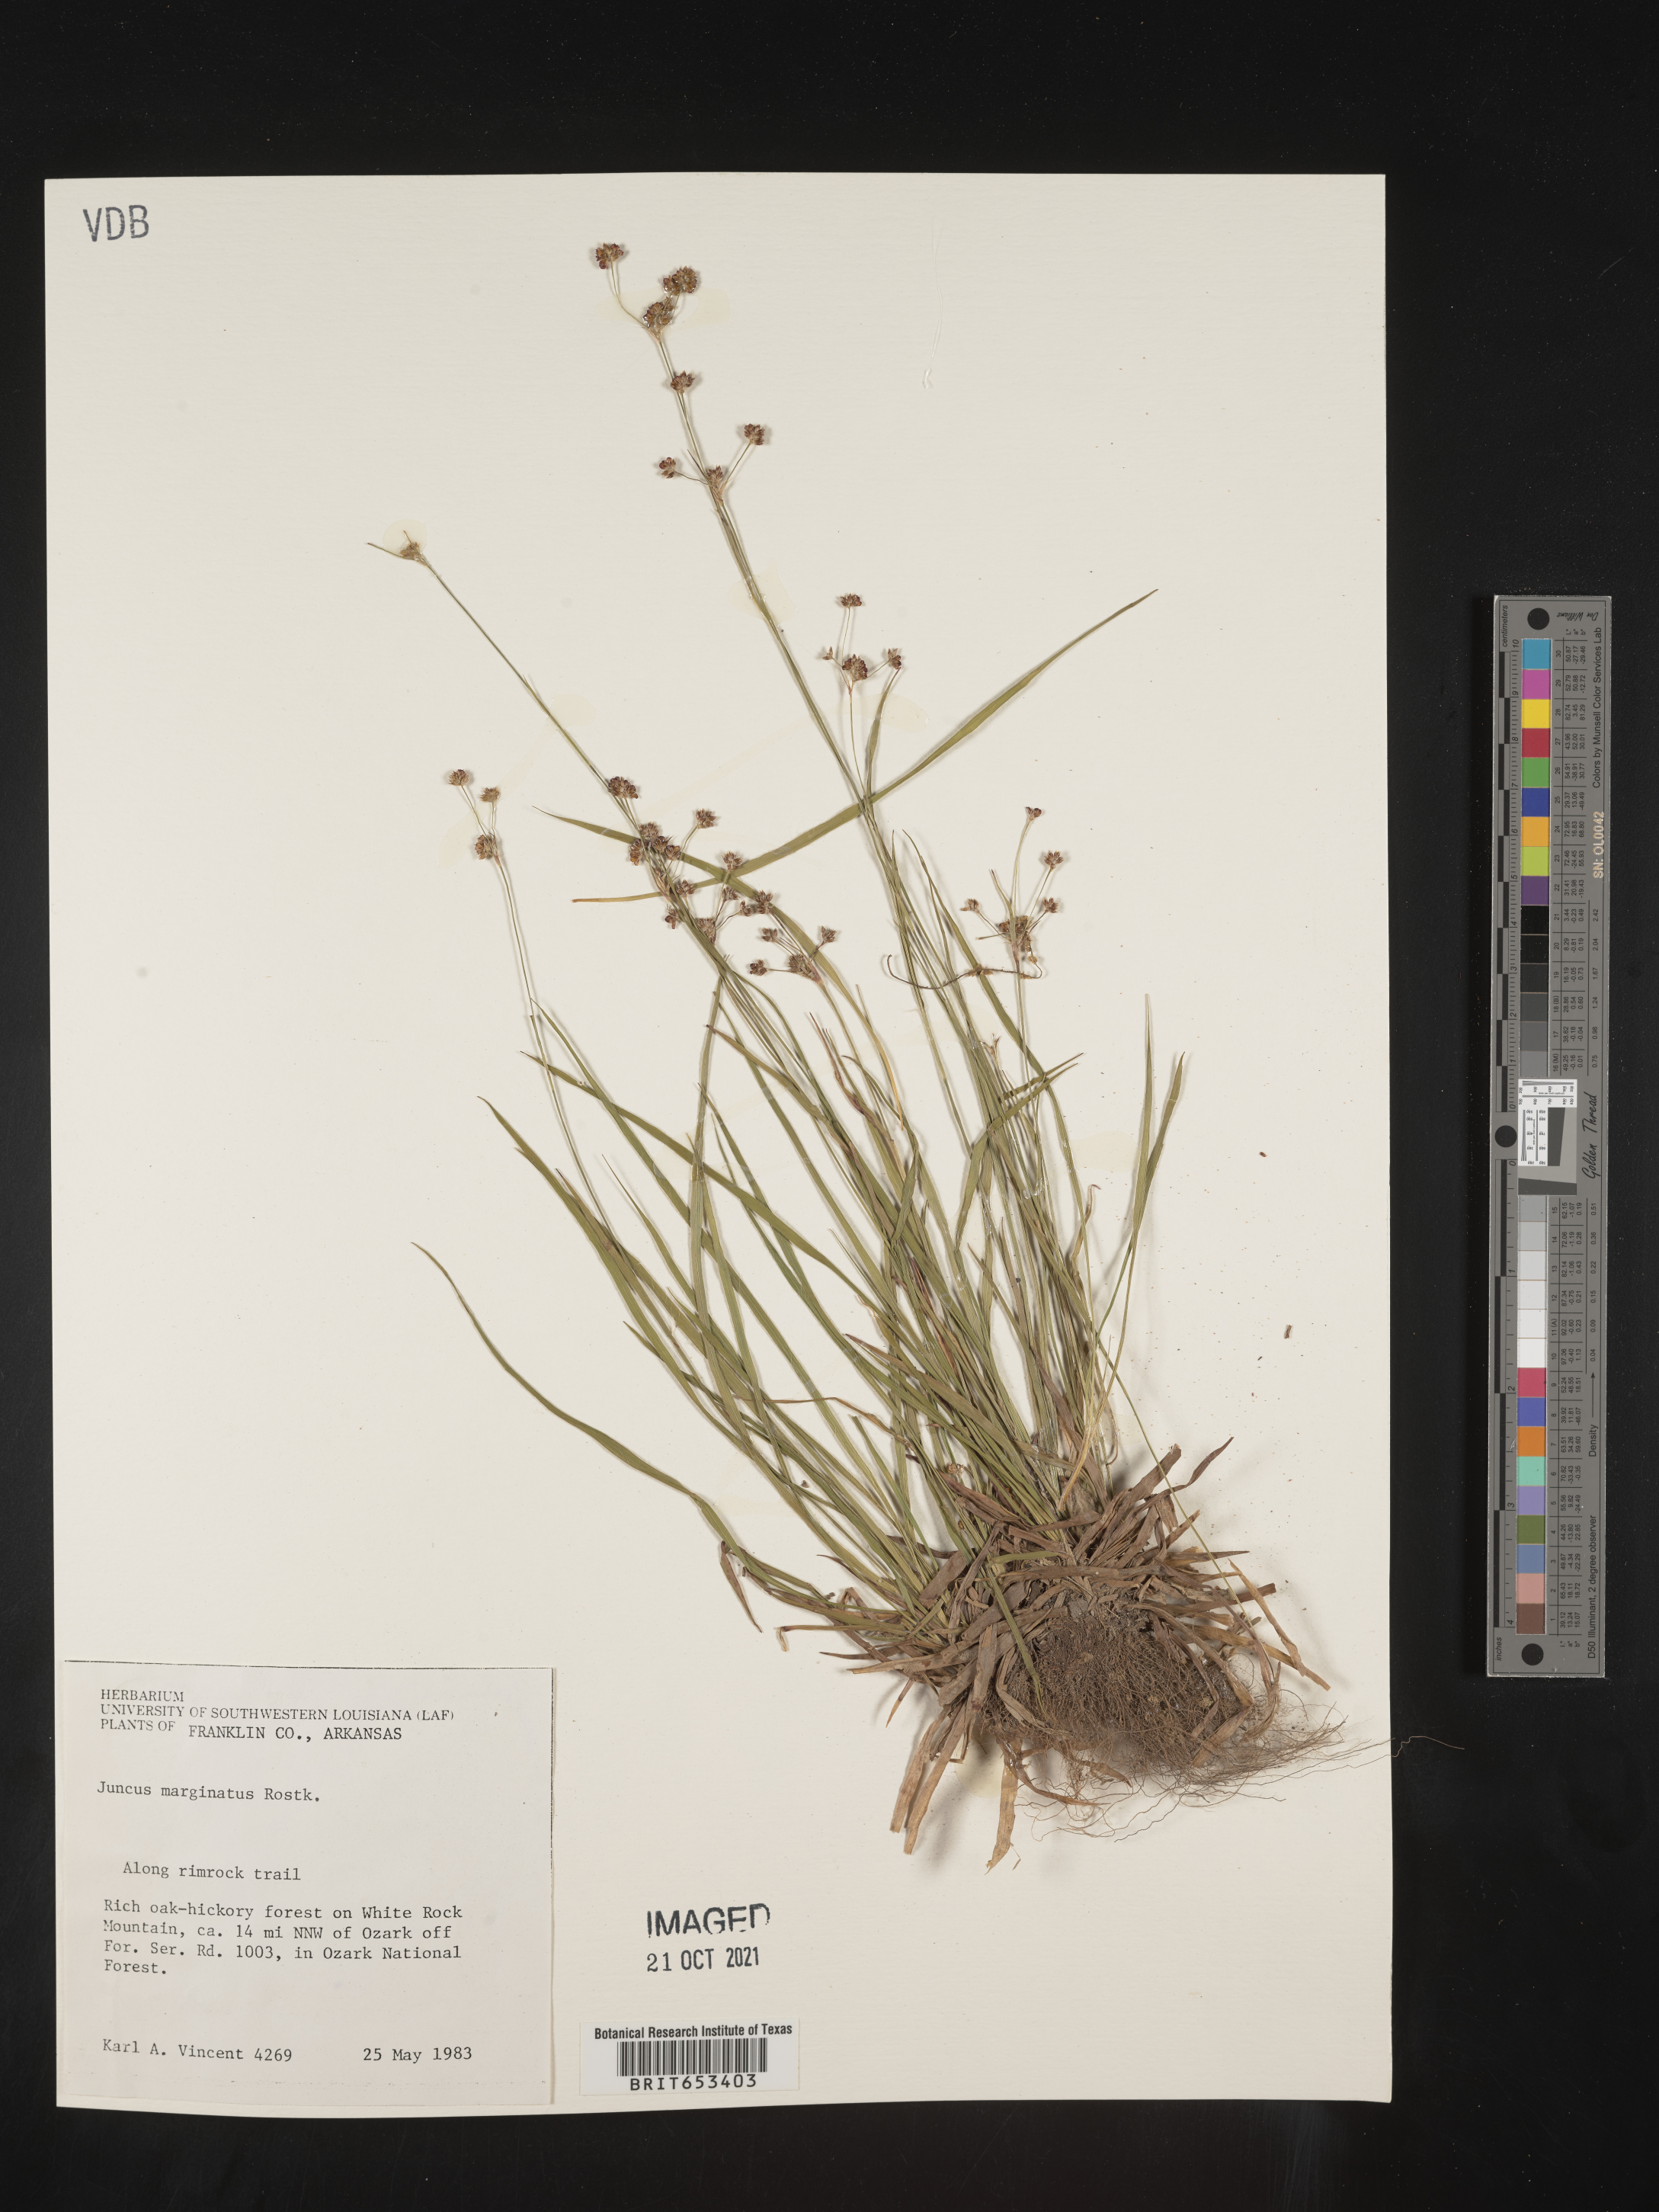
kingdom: Plantae
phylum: Tracheophyta
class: Liliopsida
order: Poales
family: Juncaceae
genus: Juncus
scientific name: Juncus marginatus
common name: Grass-leaf rush
